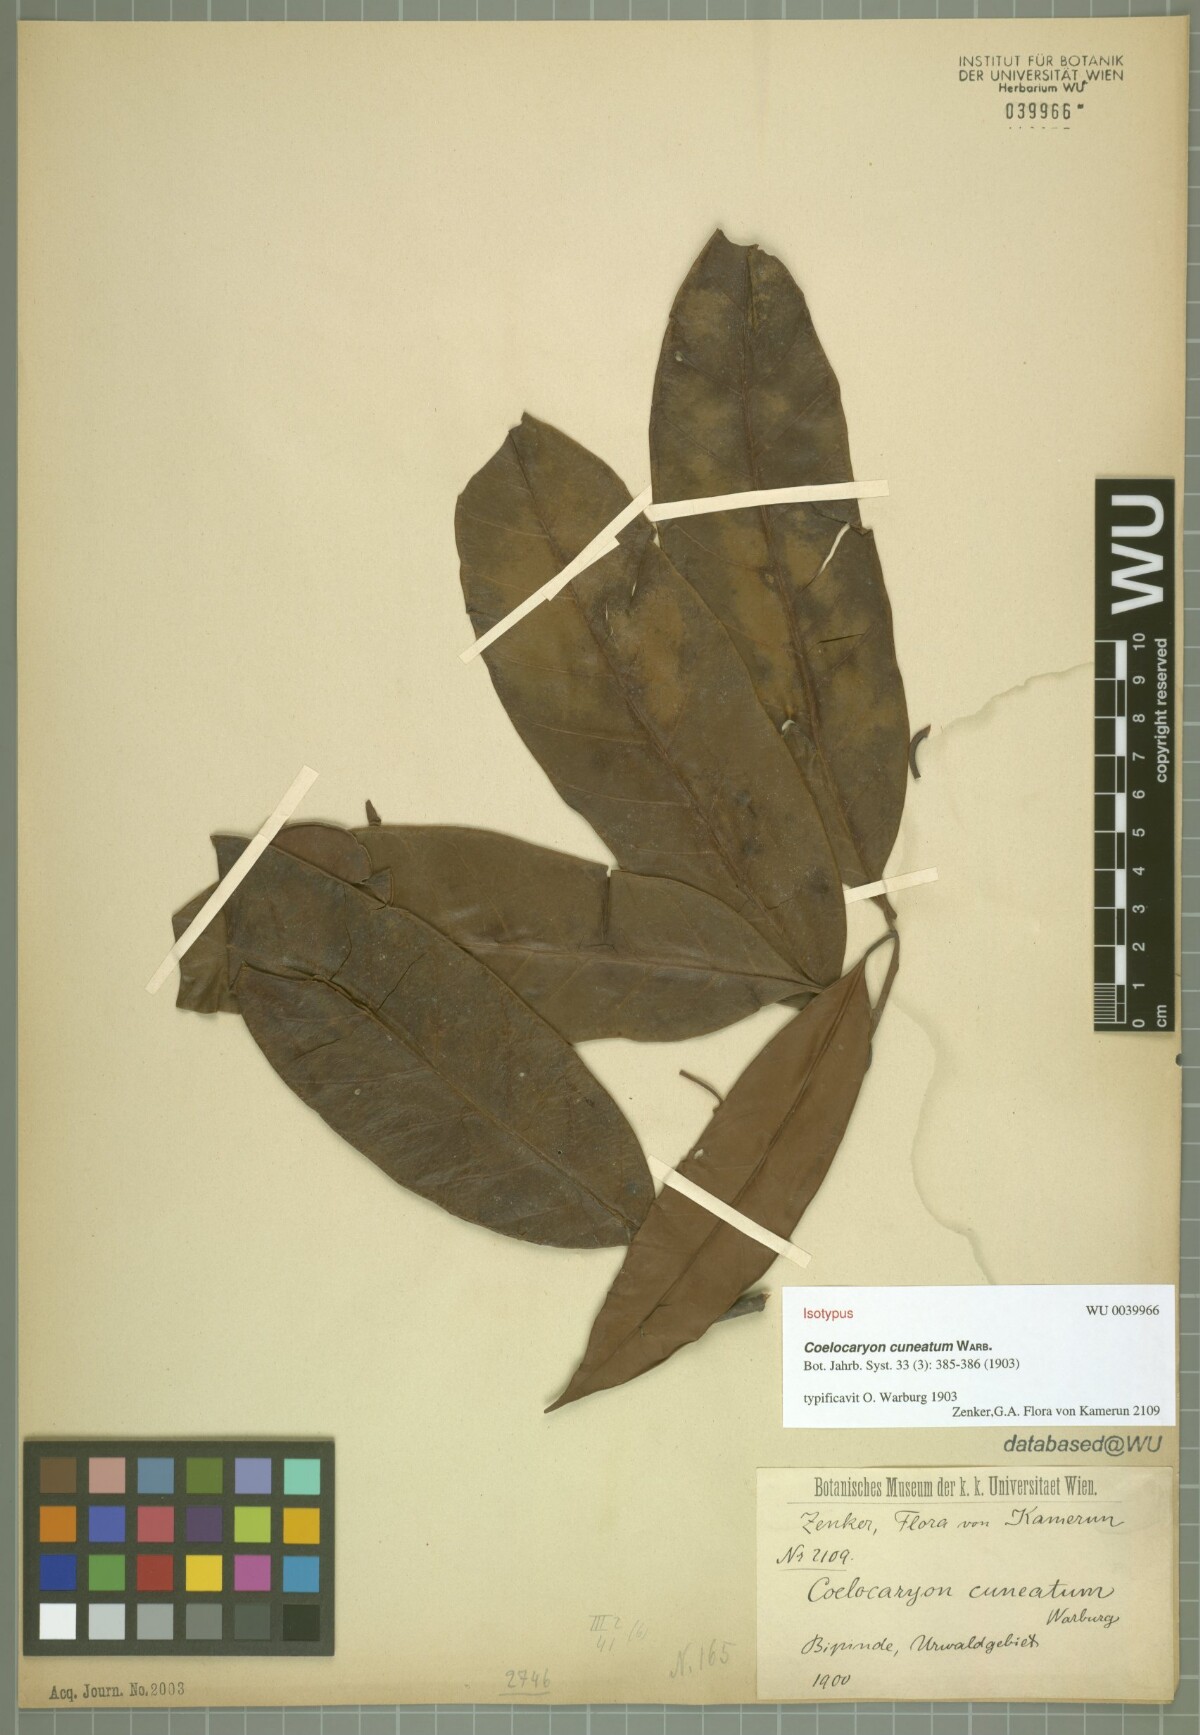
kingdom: Plantae
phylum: Tracheophyta
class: Magnoliopsida
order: Magnoliales
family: Myristicaceae
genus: Coelocaryon
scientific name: Coelocaryon preussii
